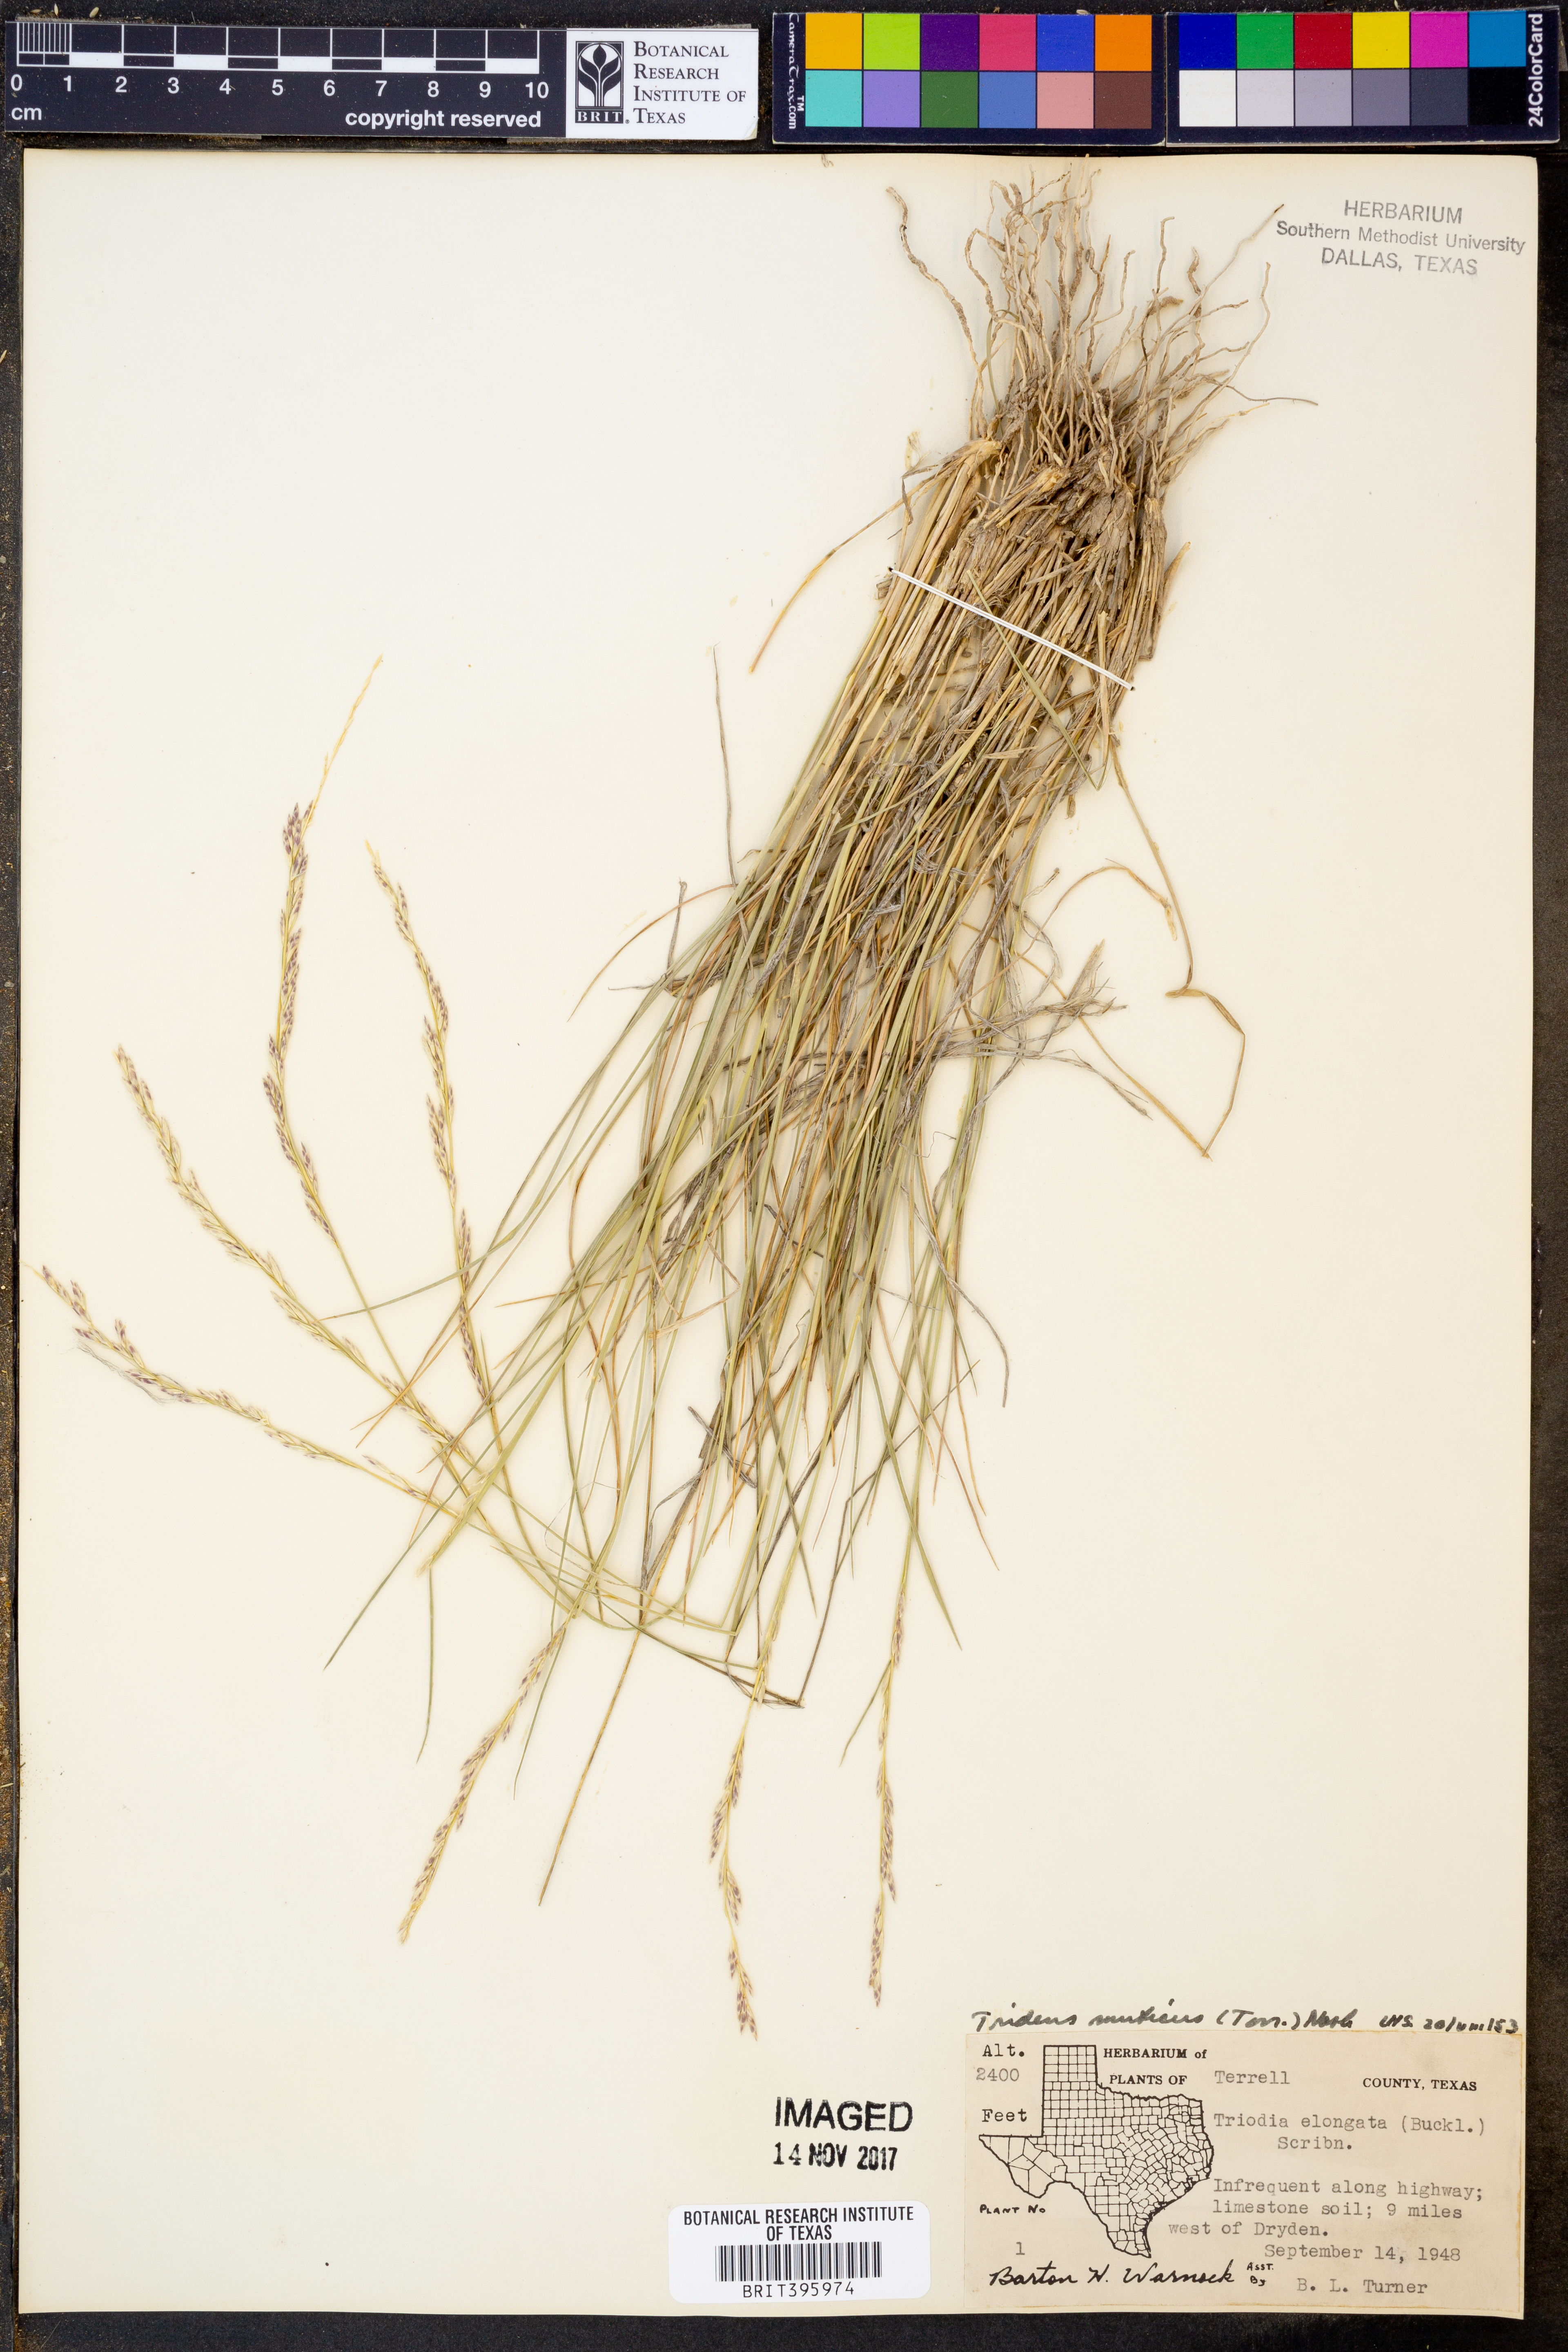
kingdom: Plantae
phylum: Tracheophyta
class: Liliopsida
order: Poales
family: Poaceae
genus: Tridentopsis
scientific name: Tridentopsis mutica
